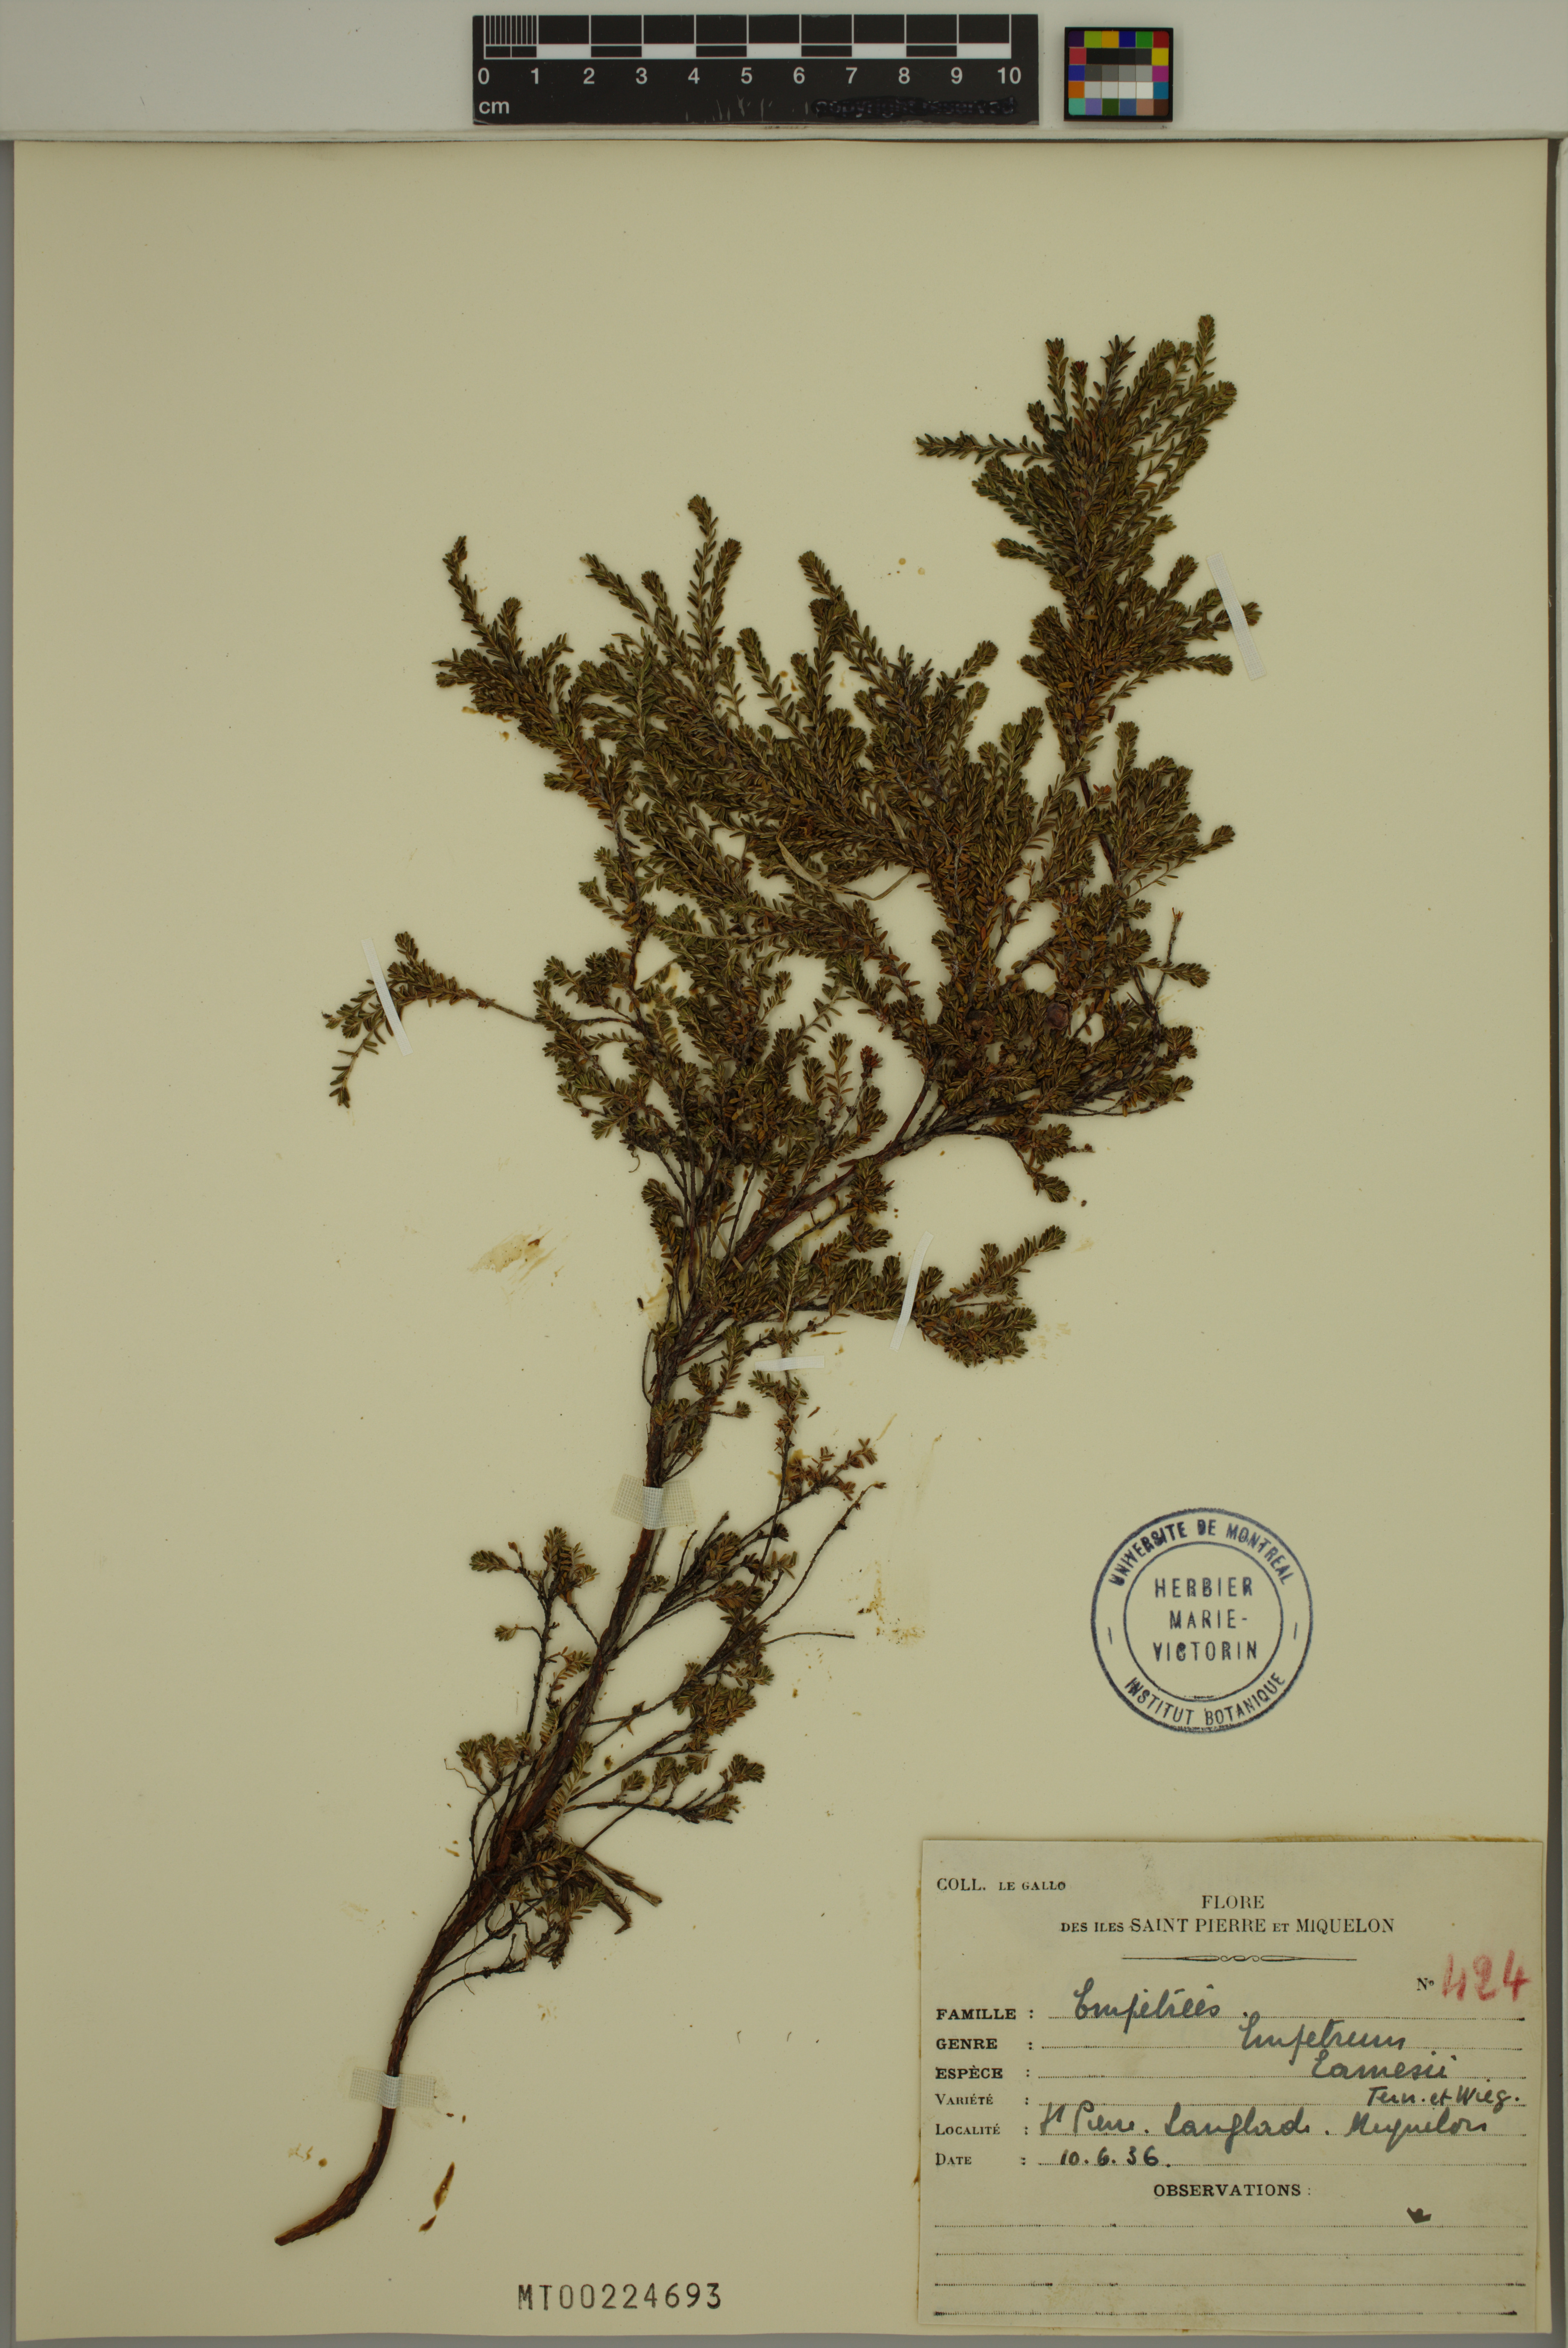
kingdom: Plantae
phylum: Tracheophyta
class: Magnoliopsida
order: Ericales
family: Ericaceae
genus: Empetrum
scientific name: Empetrum eamesii
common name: Pink crowberry
